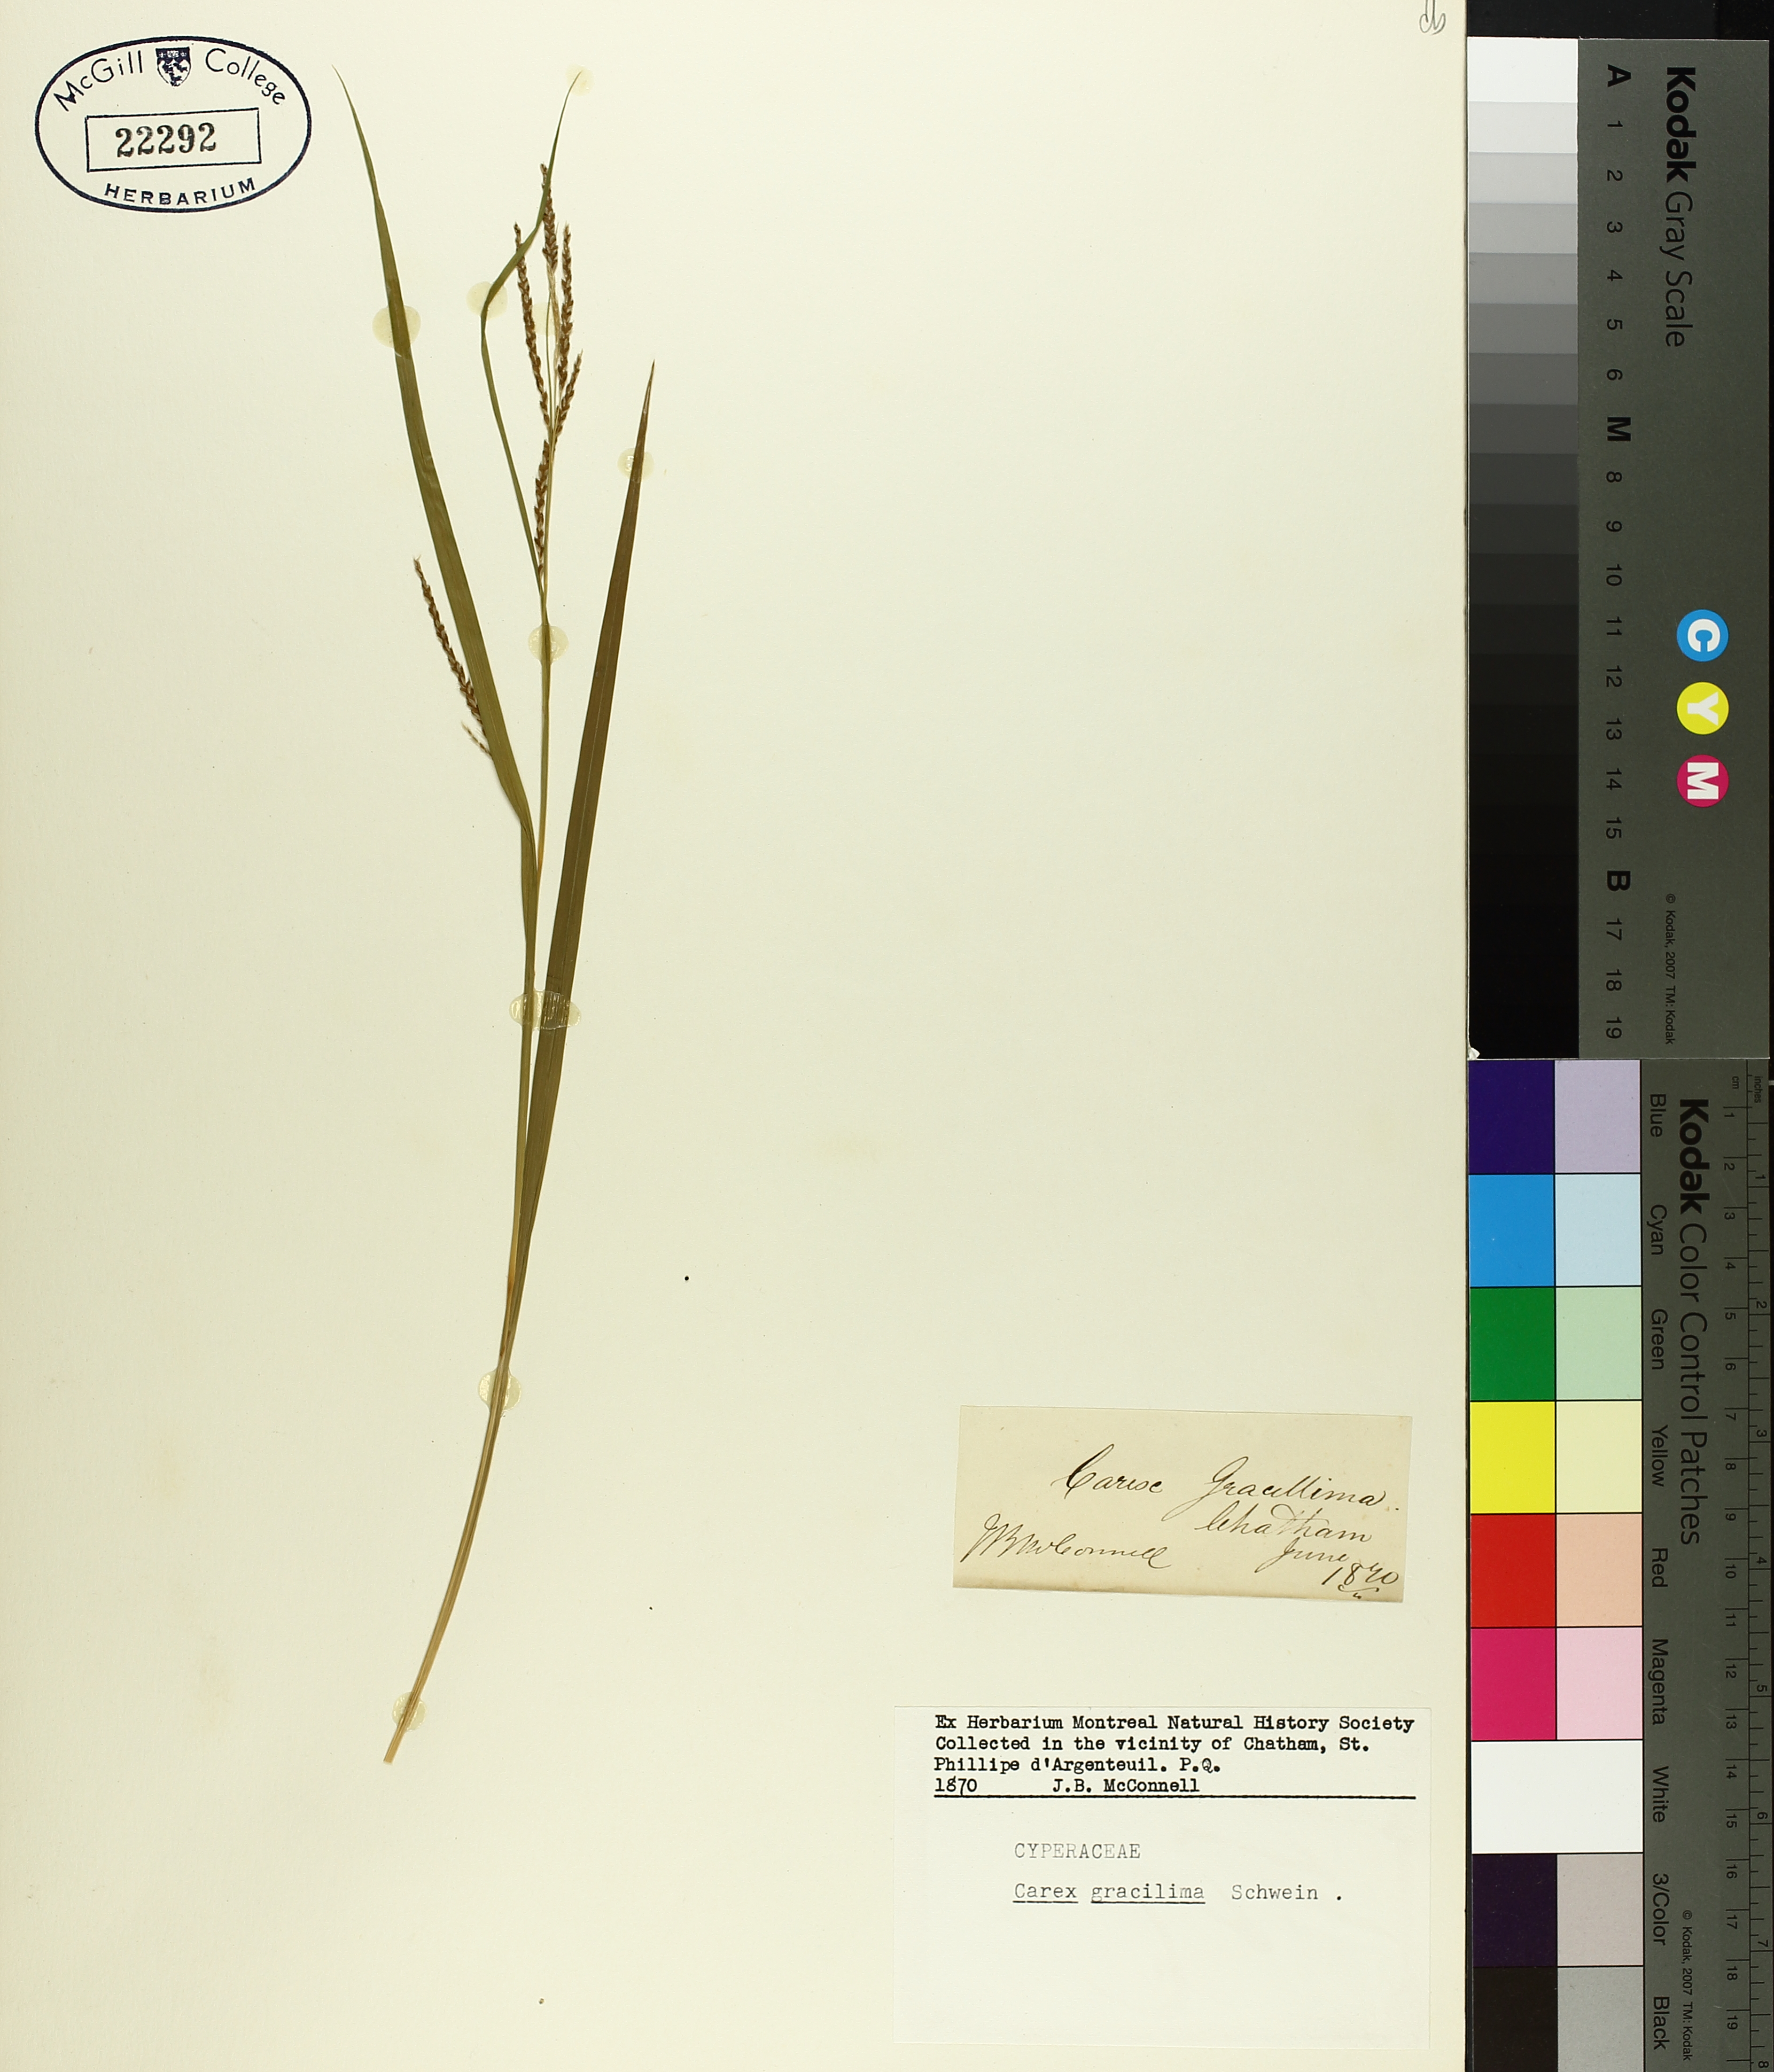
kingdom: Plantae
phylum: Tracheophyta
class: Liliopsida
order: Poales
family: Cyperaceae
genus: Carex
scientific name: Carex gracillima
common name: Graceful sedge
